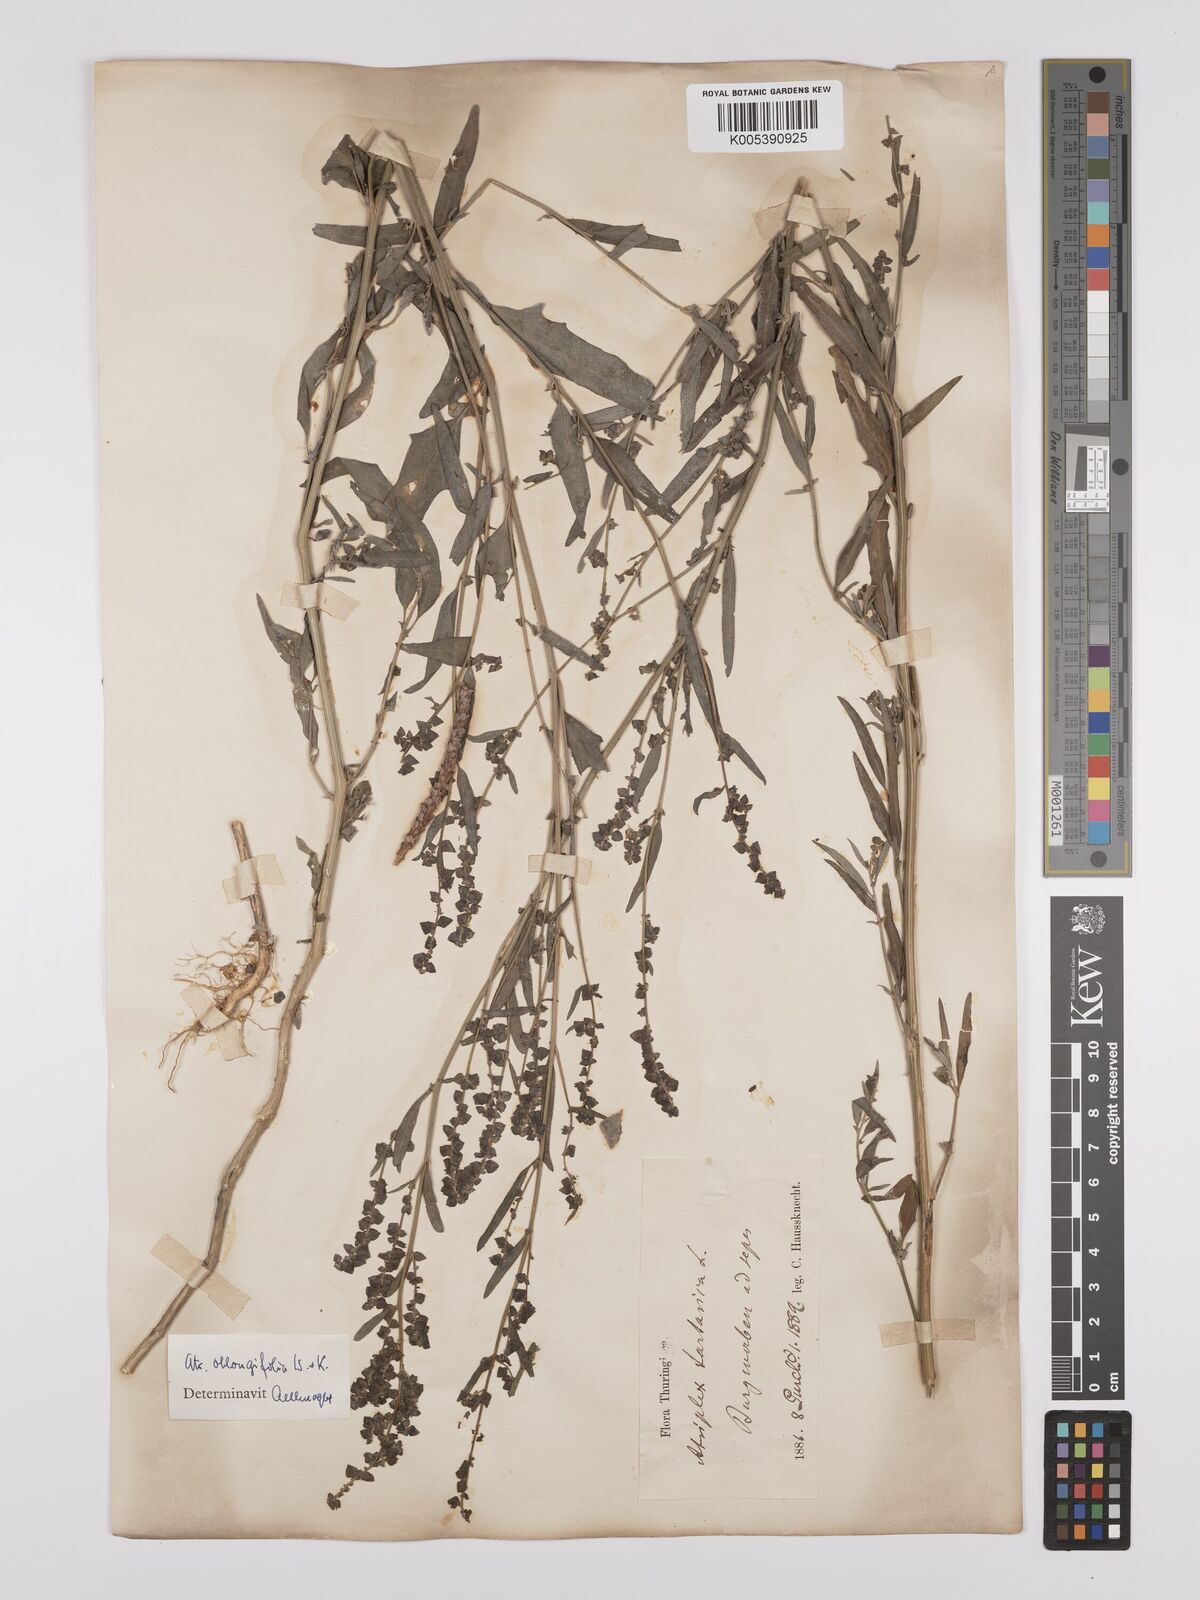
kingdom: Plantae
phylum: Tracheophyta
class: Magnoliopsida
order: Caryophyllales
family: Amaranthaceae
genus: Atriplex
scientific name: Atriplex
